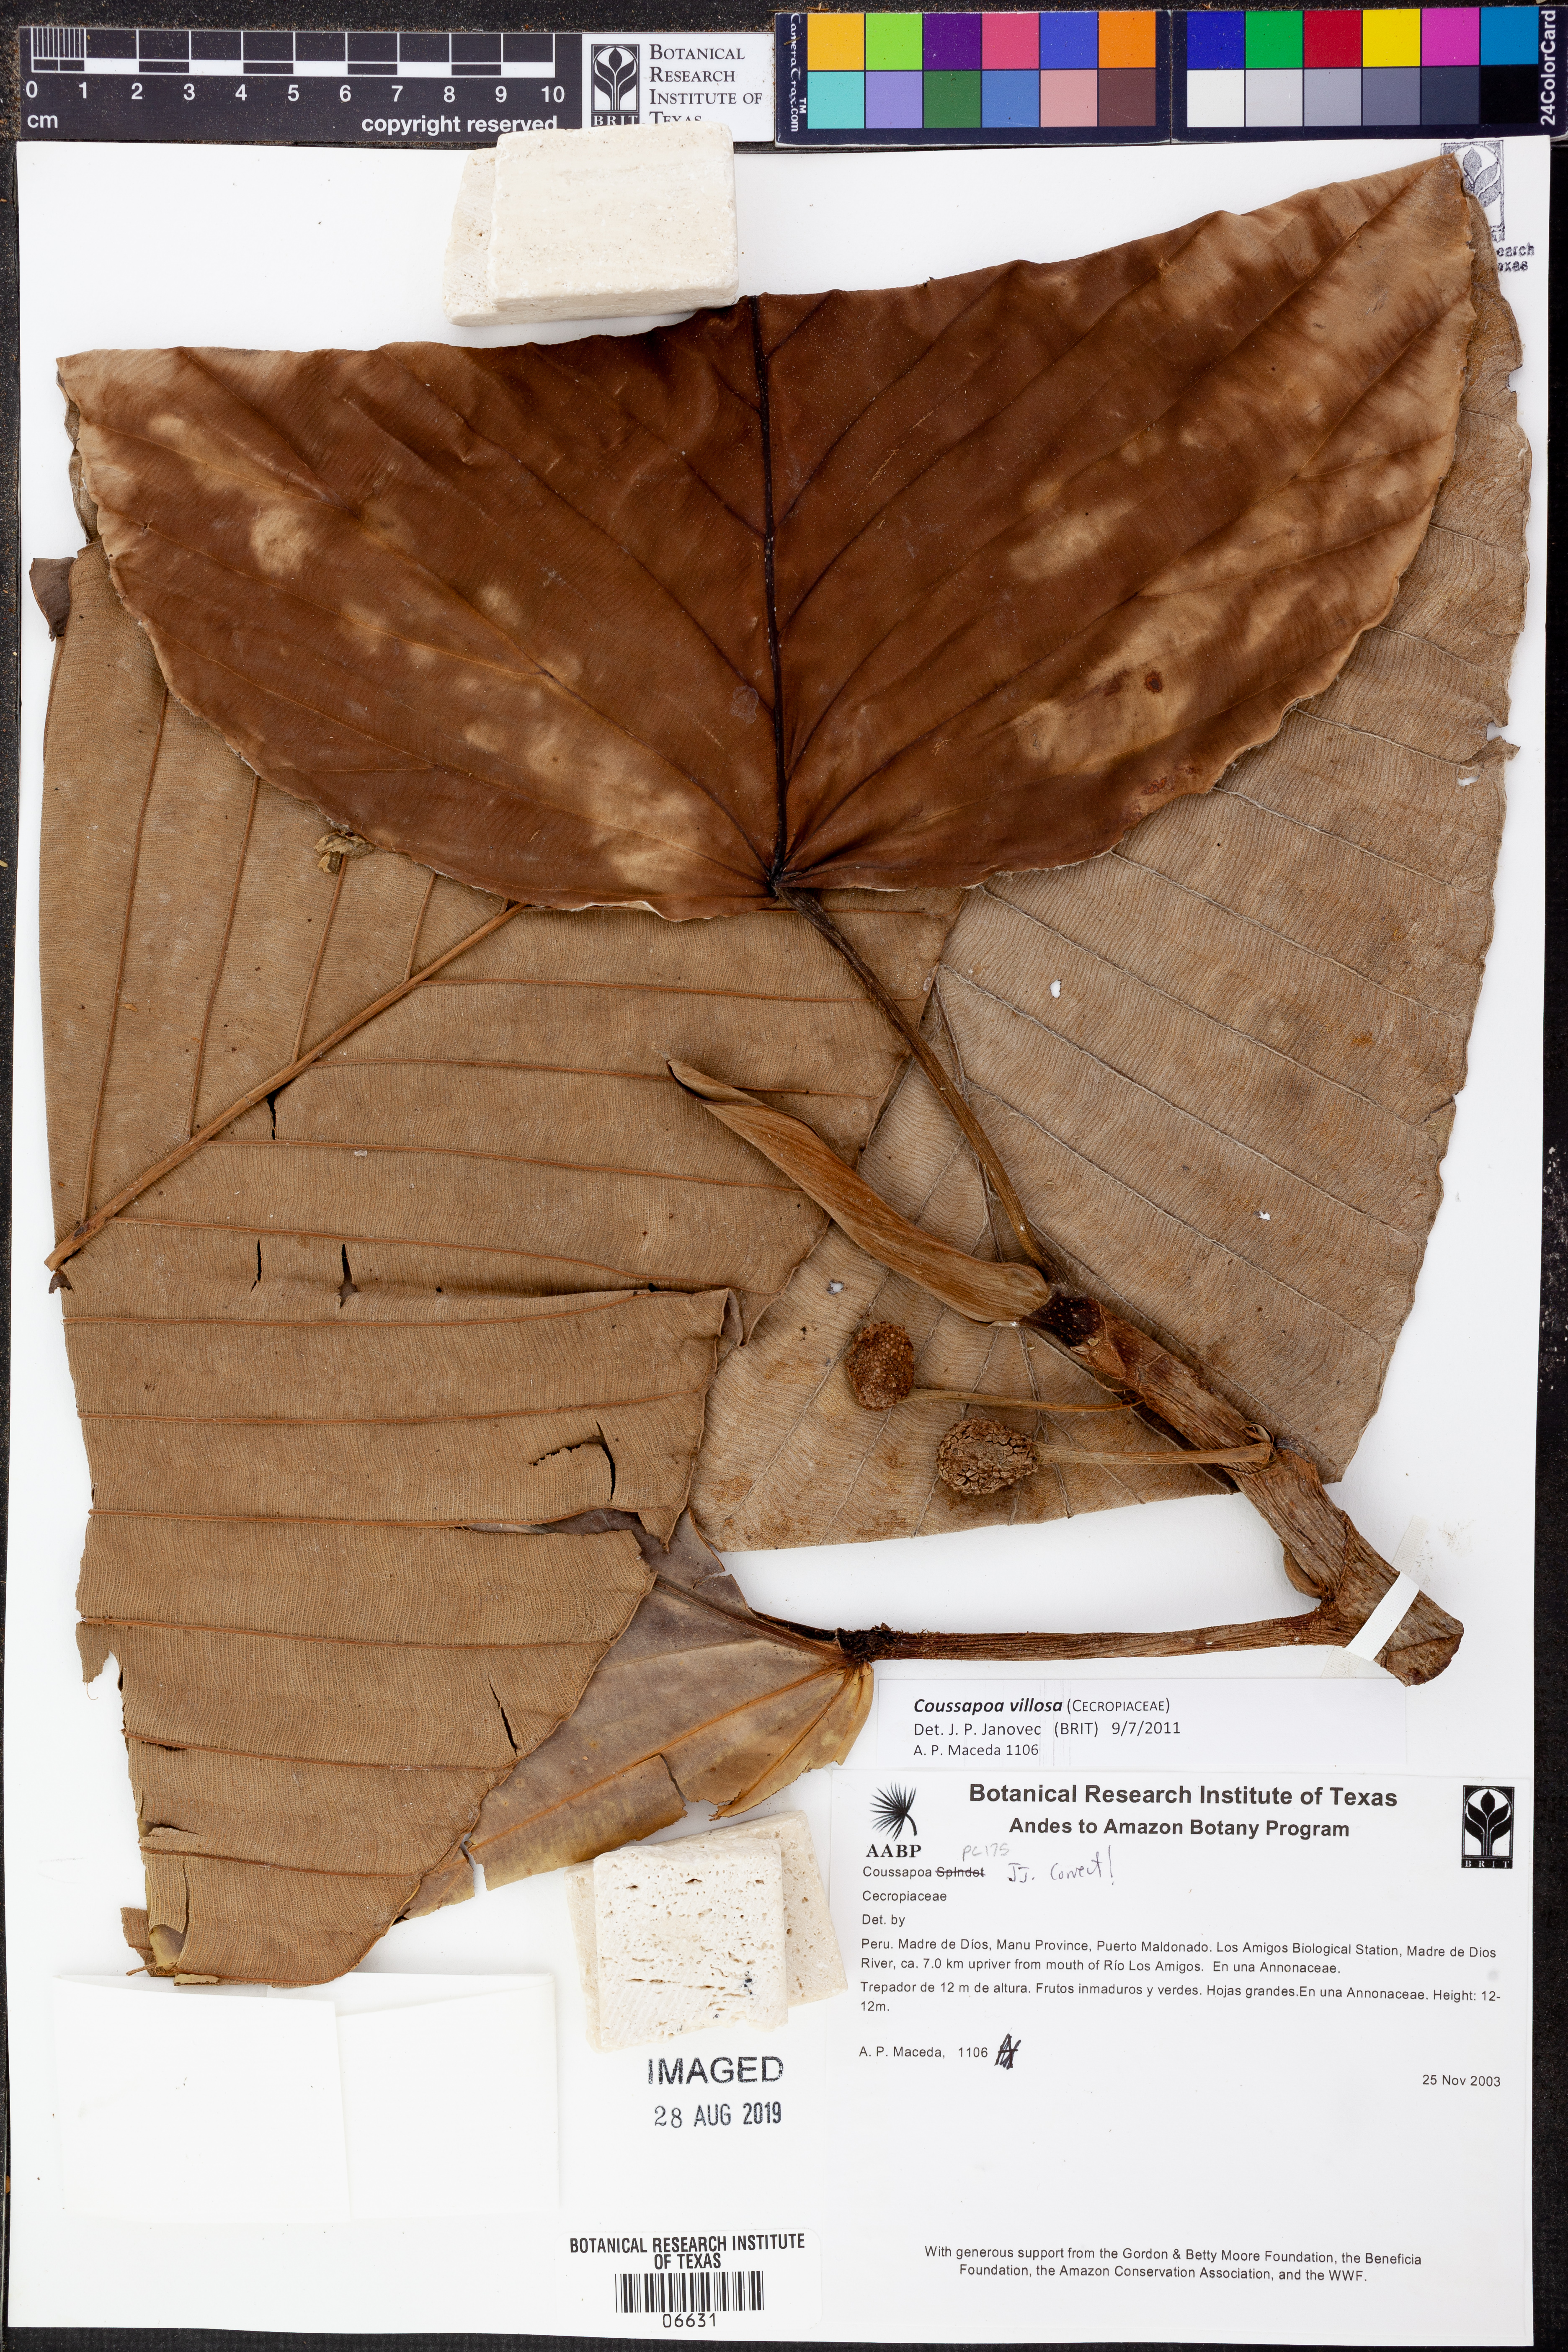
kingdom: Plantae
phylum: Tracheophyta
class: Magnoliopsida
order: Rosales
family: Urticaceae
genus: Coussapoa
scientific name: Coussapoa
